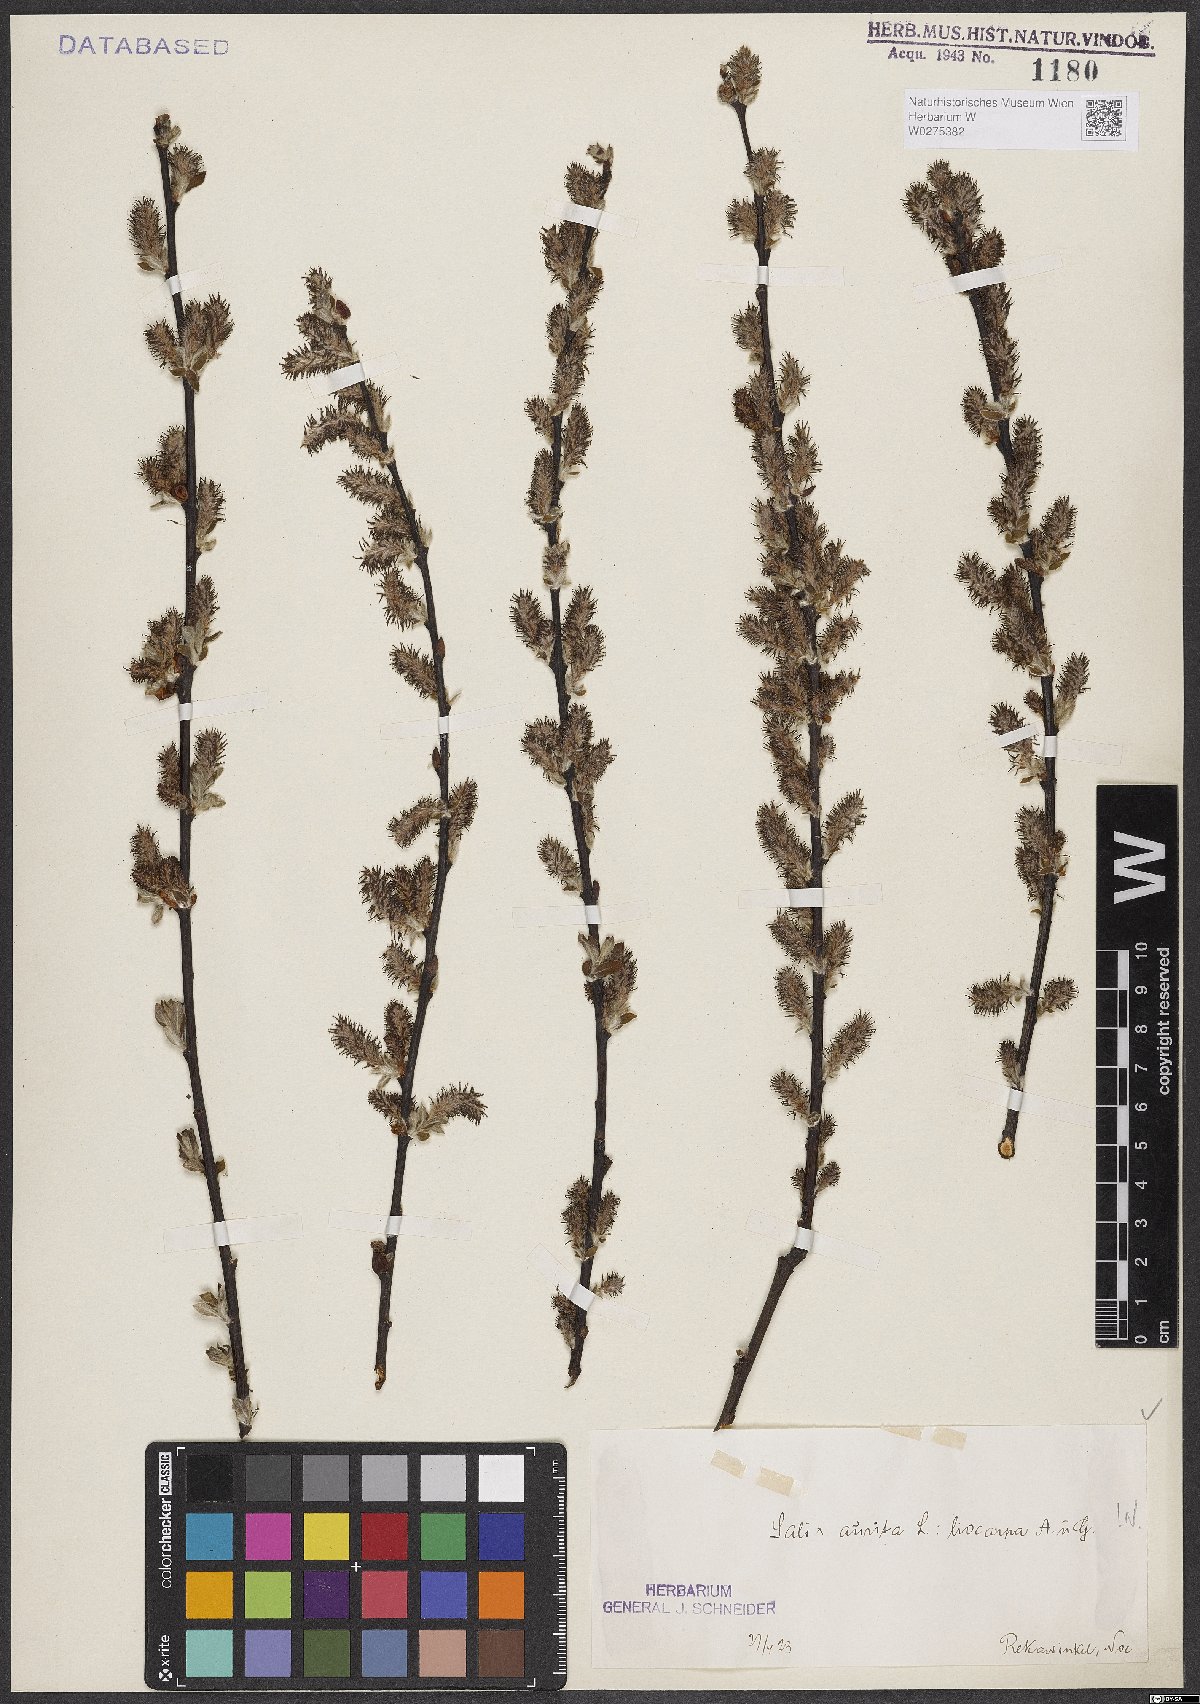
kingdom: Plantae
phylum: Tracheophyta
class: Magnoliopsida
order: Malpighiales
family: Salicaceae
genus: Salix
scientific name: Salix aurita
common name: Eared willow
